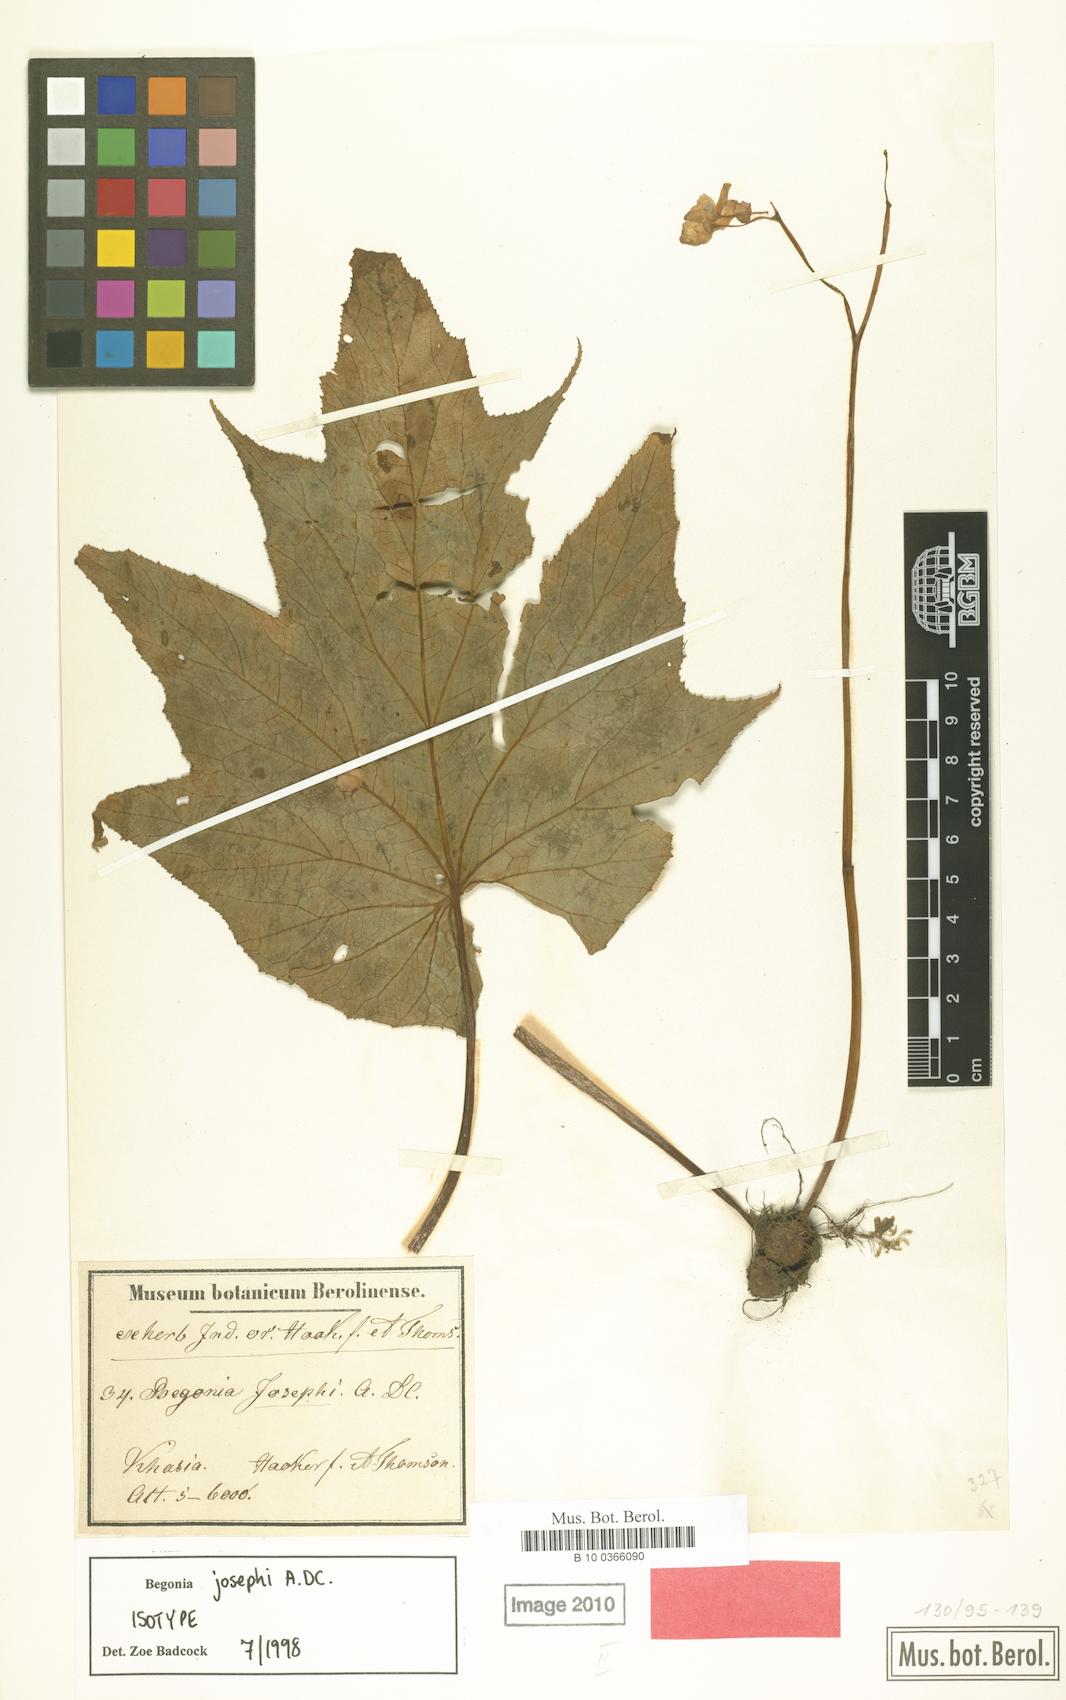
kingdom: Plantae
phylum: Tracheophyta
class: Magnoliopsida
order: Cucurbitales
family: Begoniaceae
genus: Begonia
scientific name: Begonia josephi
